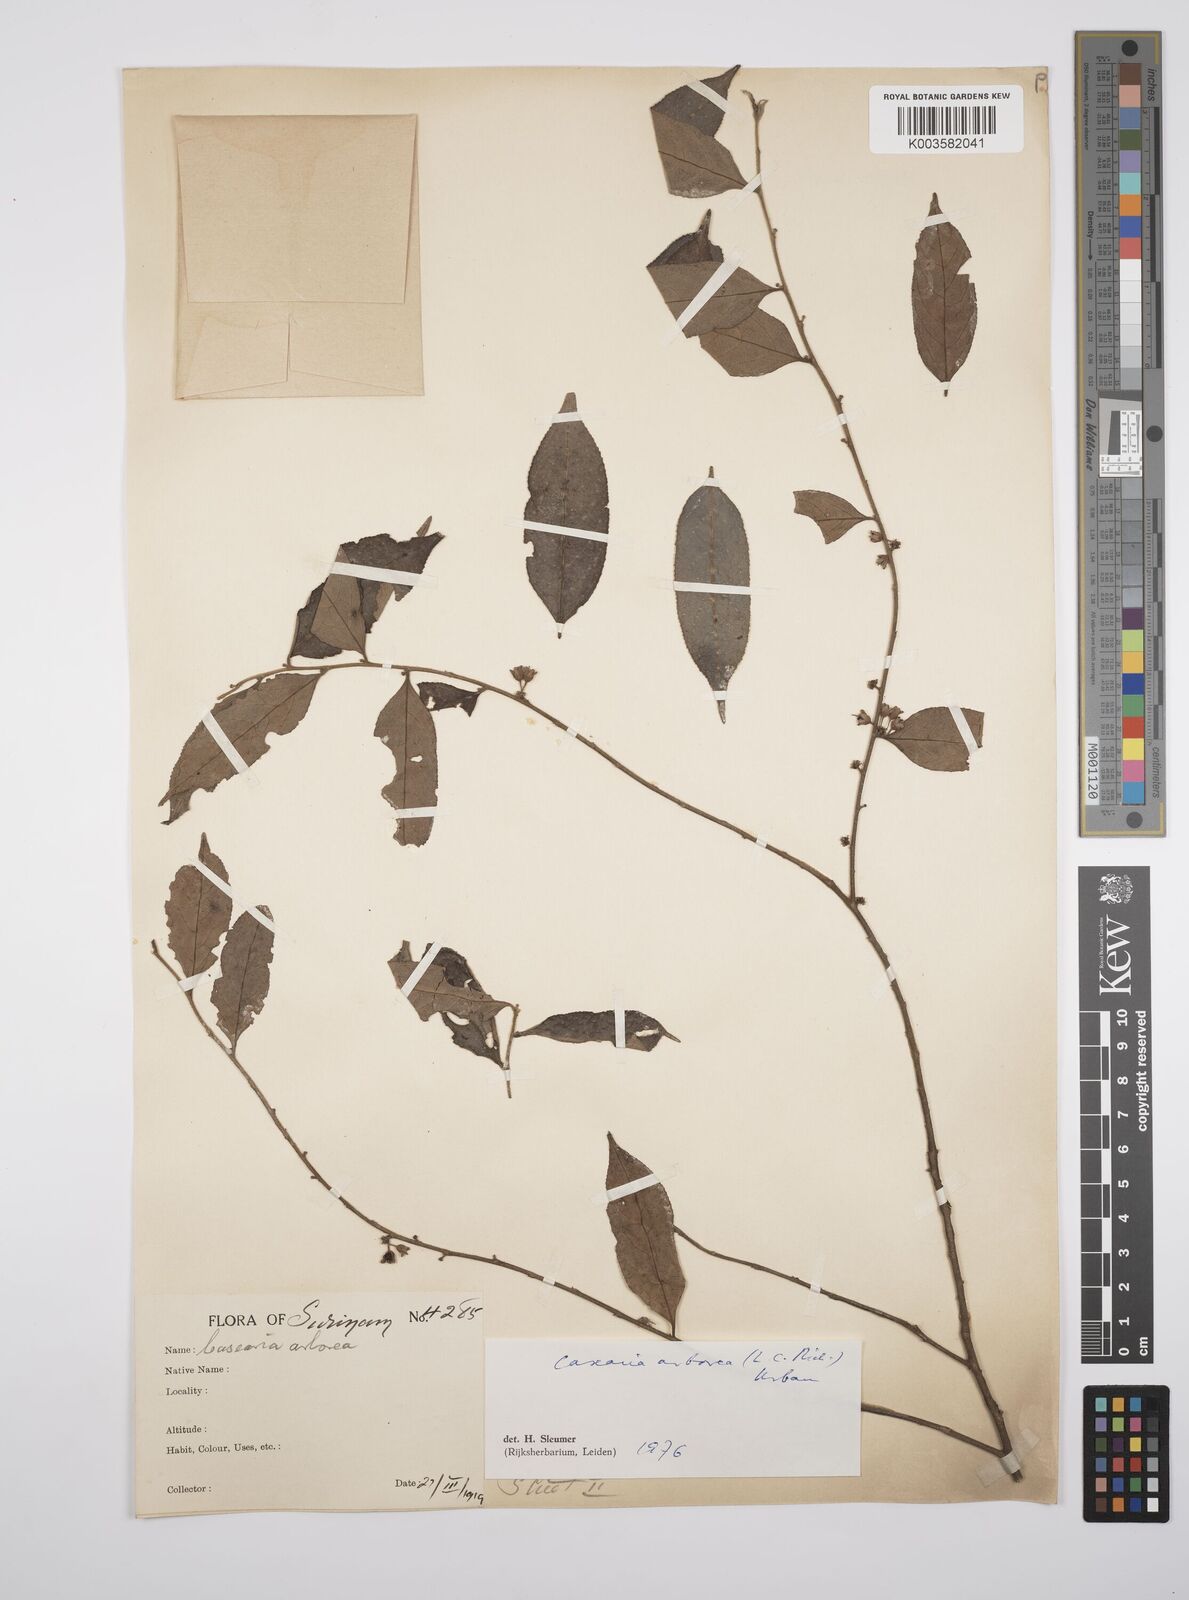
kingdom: Plantae
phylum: Tracheophyta
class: Magnoliopsida
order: Malpighiales
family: Salicaceae
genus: Casearia
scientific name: Casearia arborea
